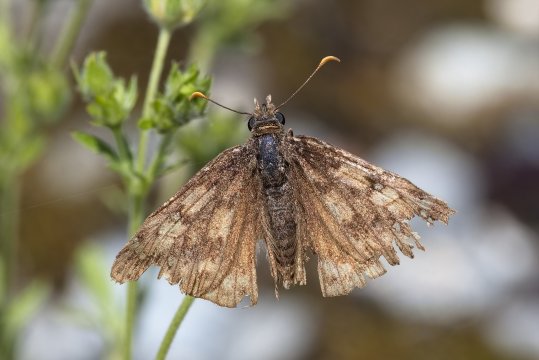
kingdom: Animalia
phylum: Arthropoda
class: Insecta
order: Lepidoptera
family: Hesperiidae
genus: Gesta
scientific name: Gesta
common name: Juvenal's Duskywing
